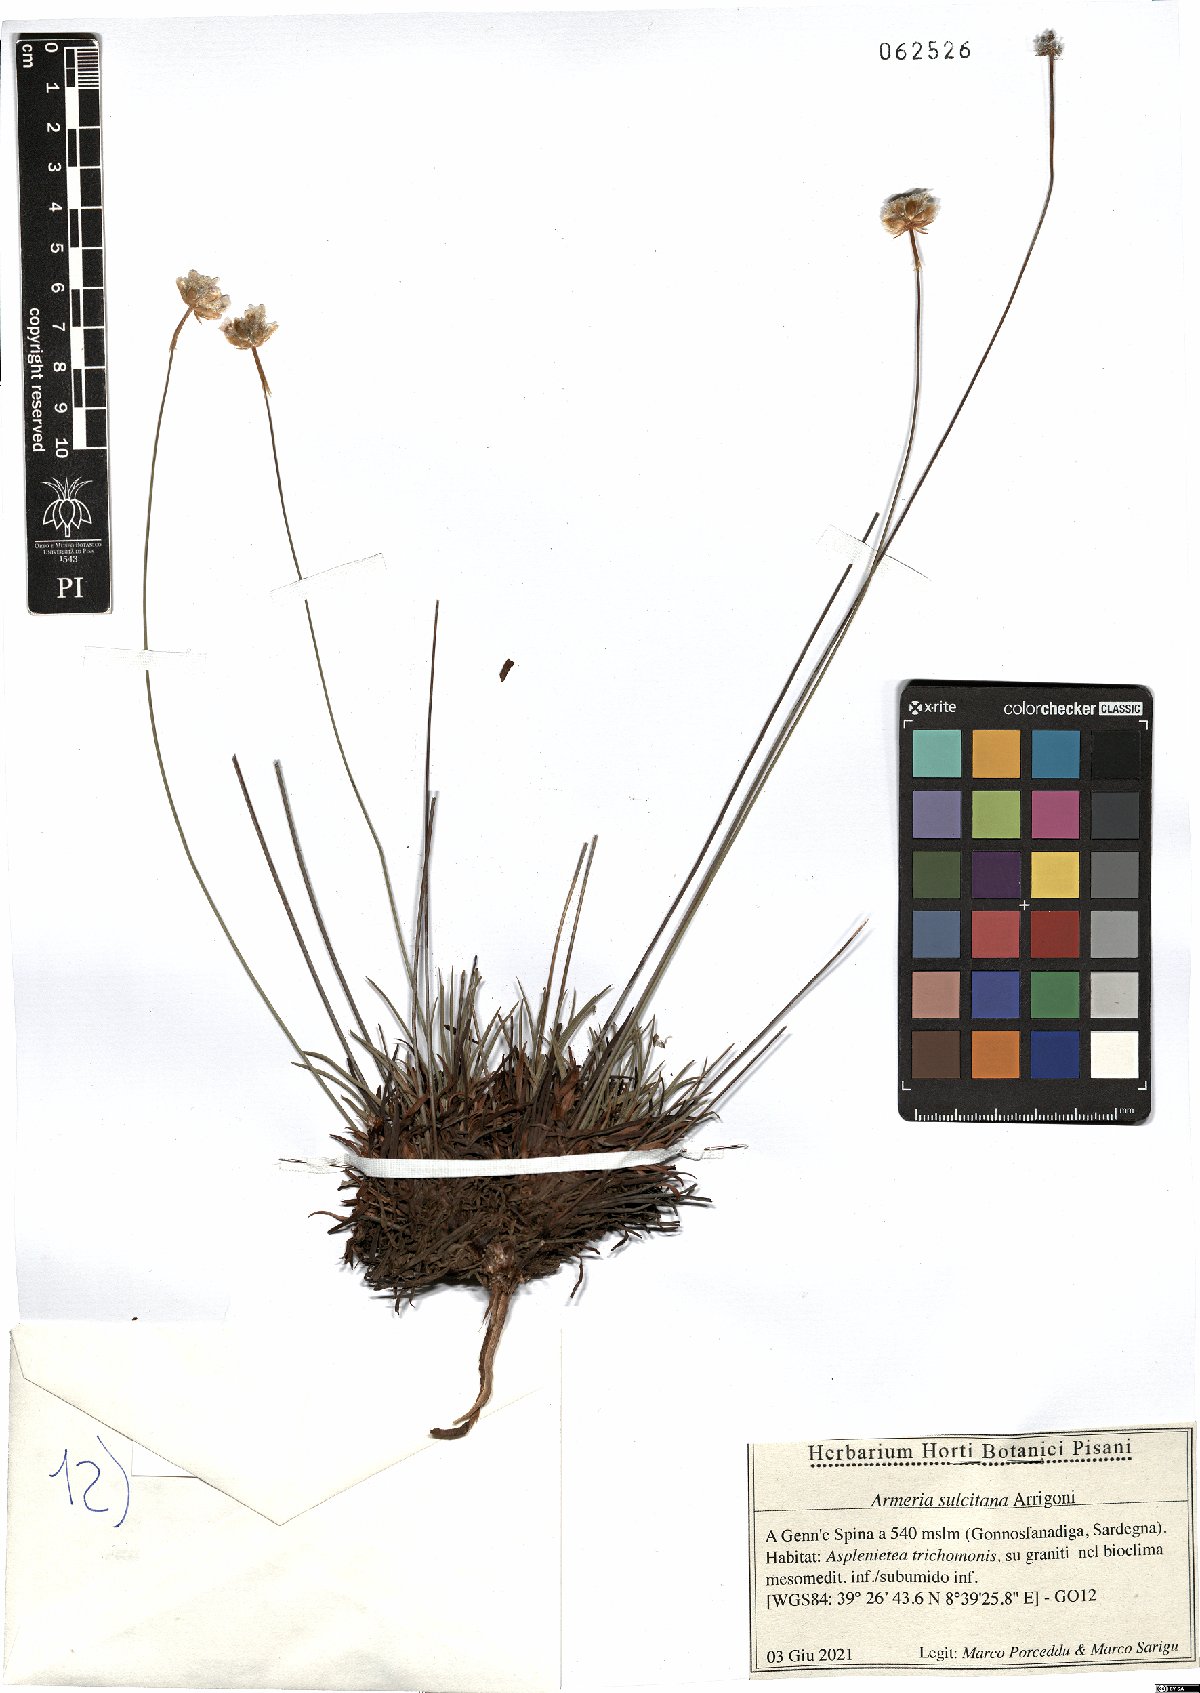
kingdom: Plantae
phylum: Tracheophyta
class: Magnoliopsida
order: Caryophyllales
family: Plumbaginaceae
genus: Armeria
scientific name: Armeria sulcitana
